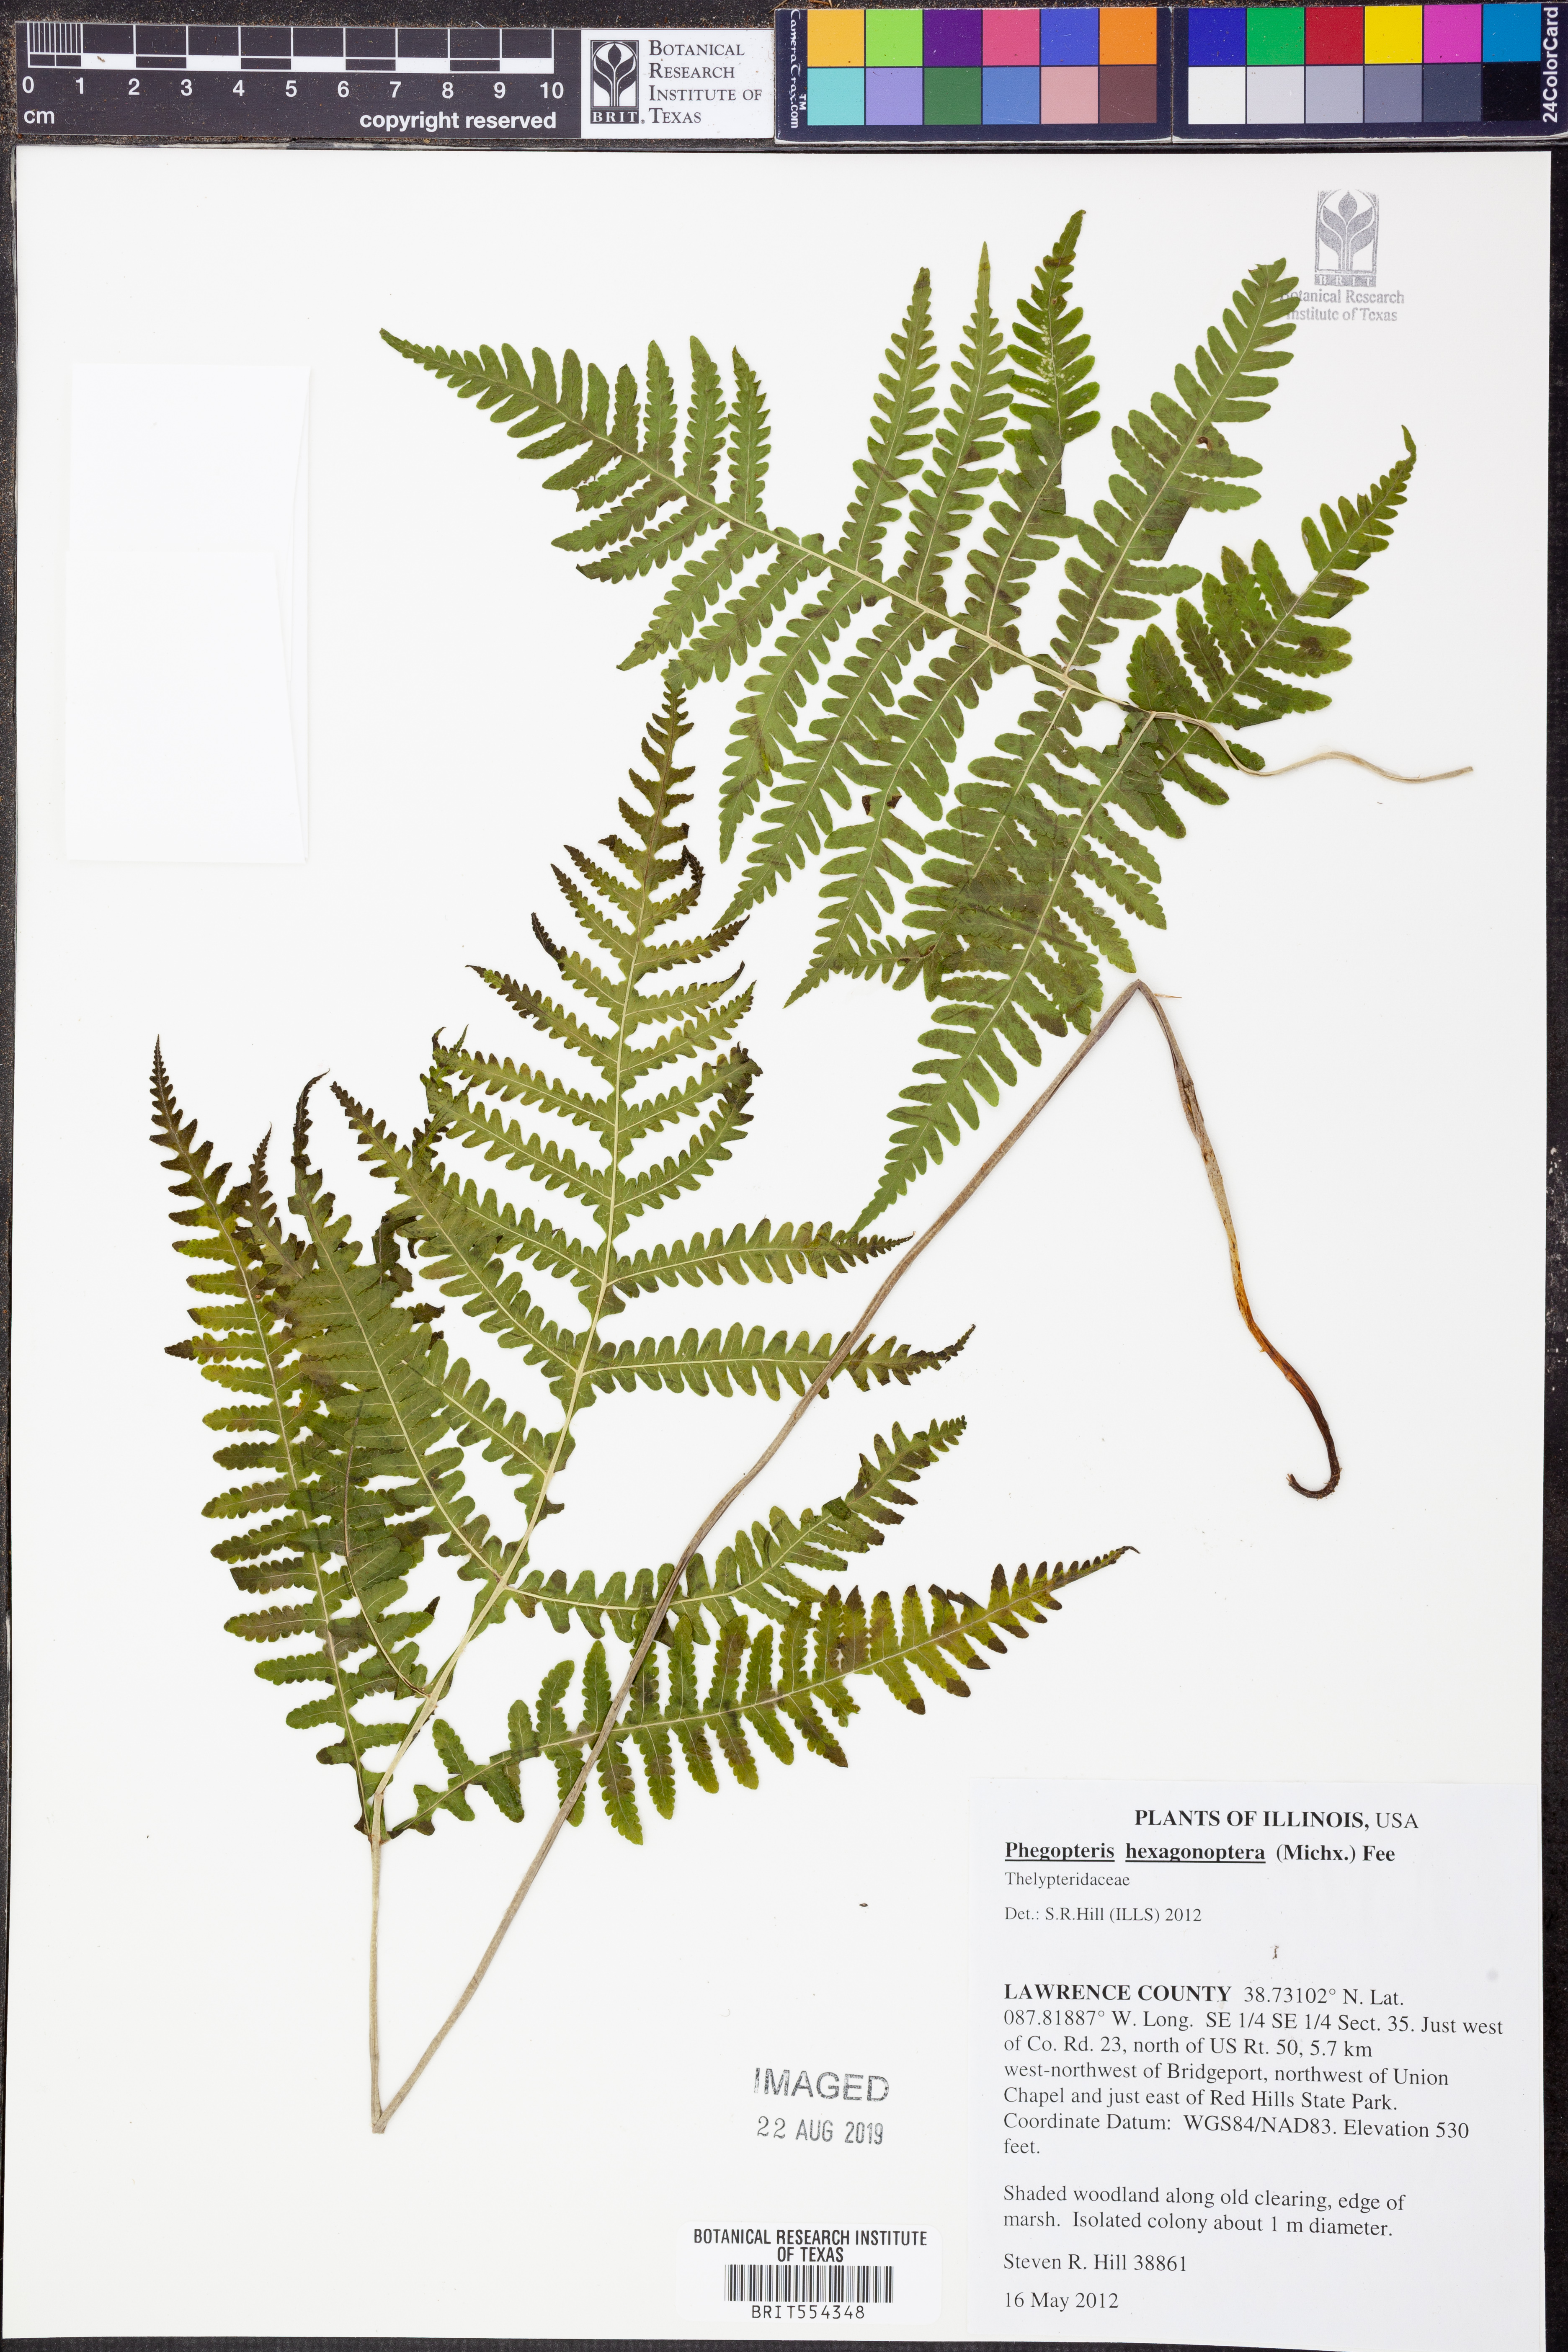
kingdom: Plantae
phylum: Tracheophyta
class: Polypodiopsida
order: Polypodiales
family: Thelypteridaceae
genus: Phegopteris
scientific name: Phegopteris hexagonoptera
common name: Broad beech fern
